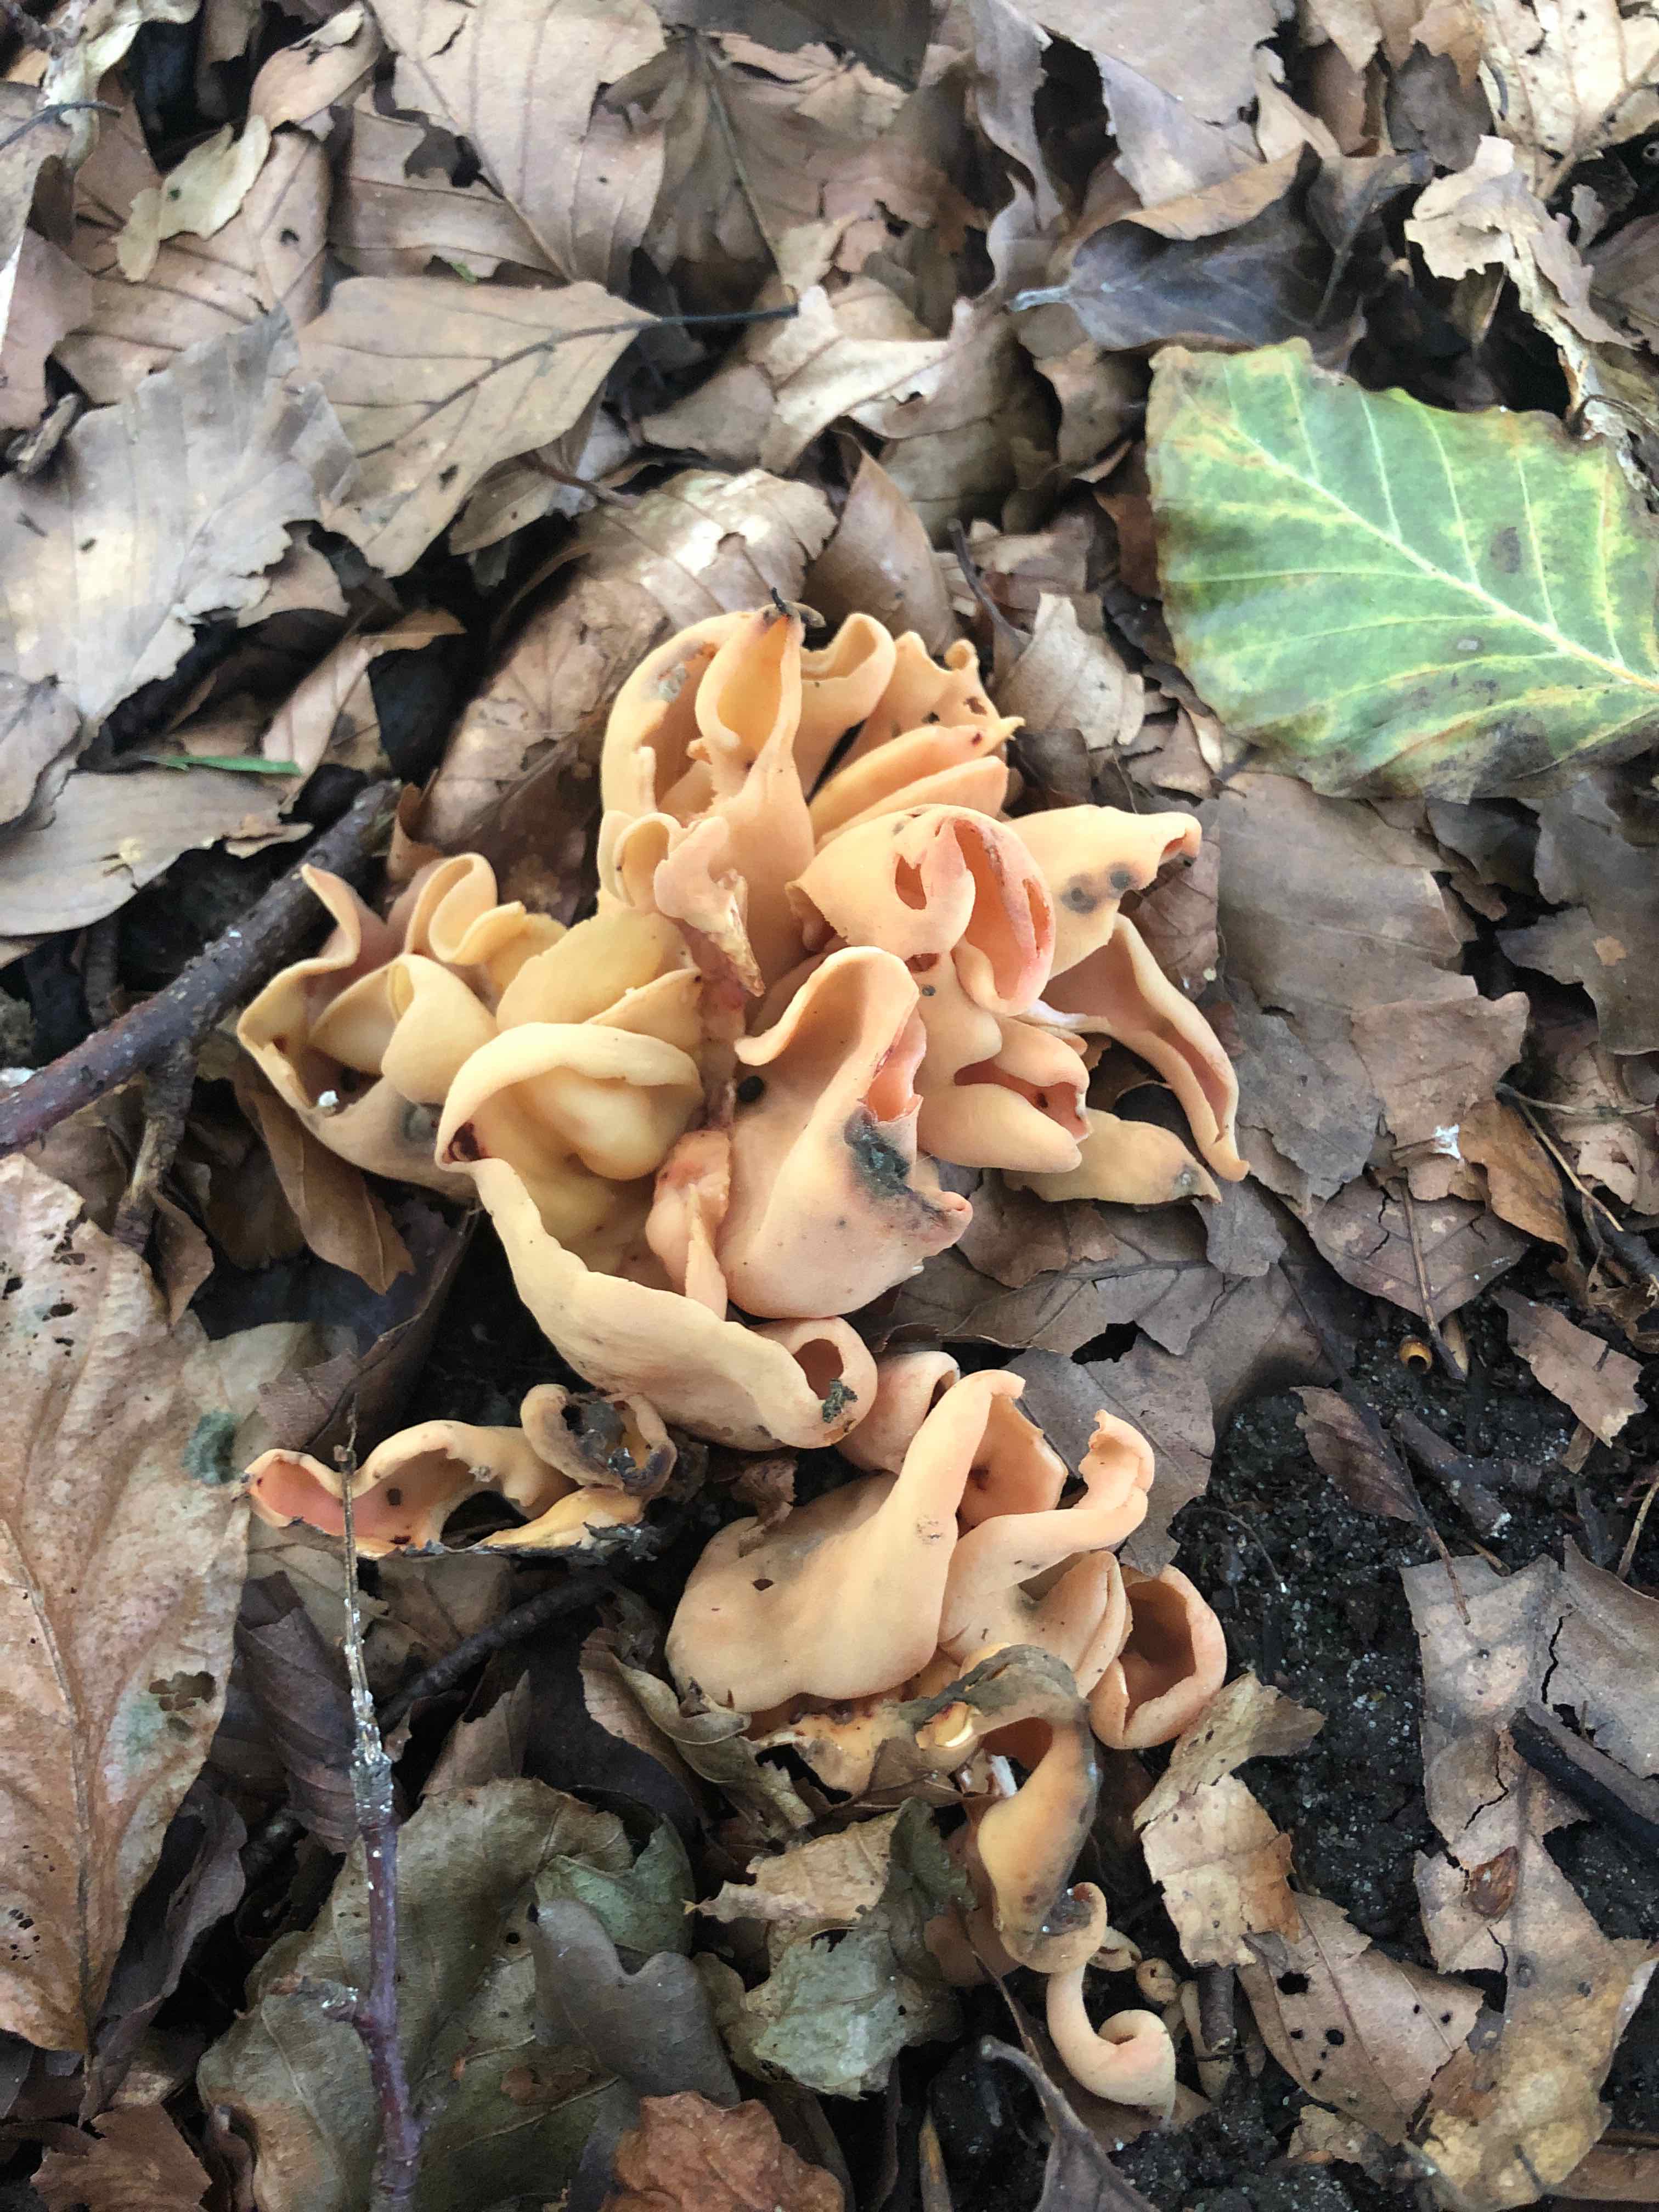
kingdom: Fungi
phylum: Ascomycota
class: Pezizomycetes
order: Pezizales
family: Otideaceae
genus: Otidea
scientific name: Otidea onotica
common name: æsel-ørebæger
